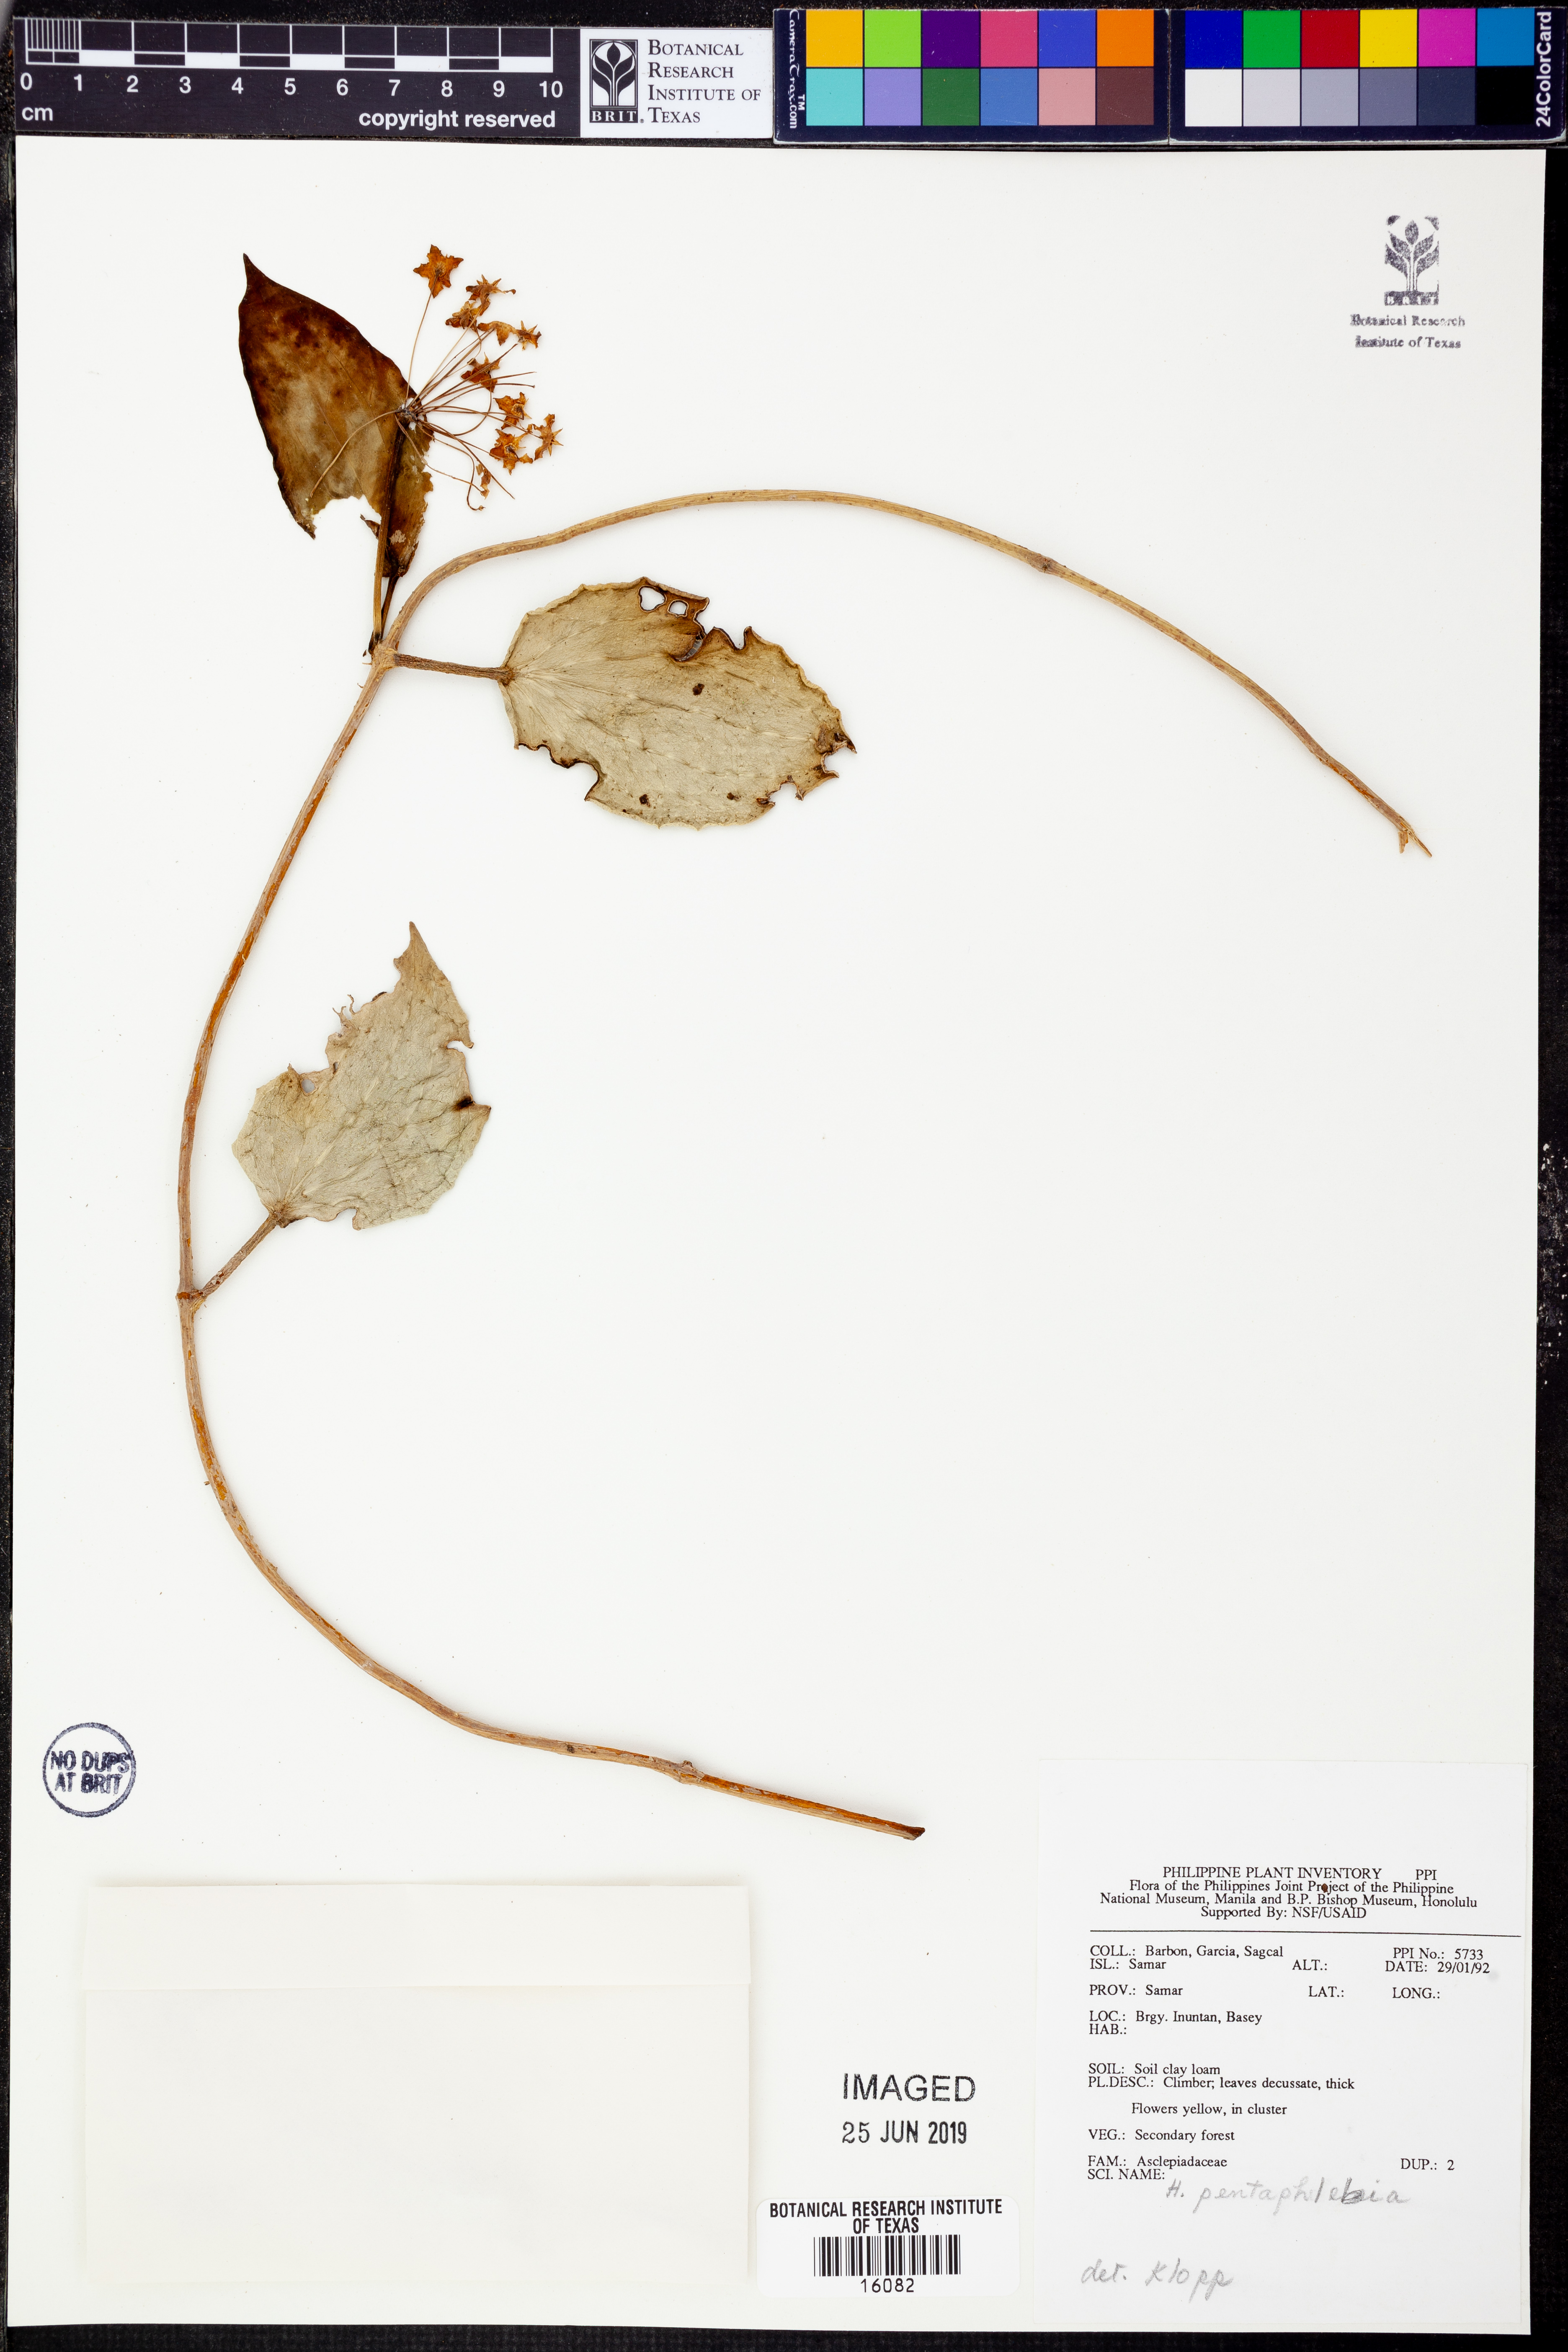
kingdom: Plantae
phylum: Tracheophyta
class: Magnoliopsida
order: Gentianales
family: Apocynaceae
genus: Hoya
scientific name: Hoya pentaphlebia
